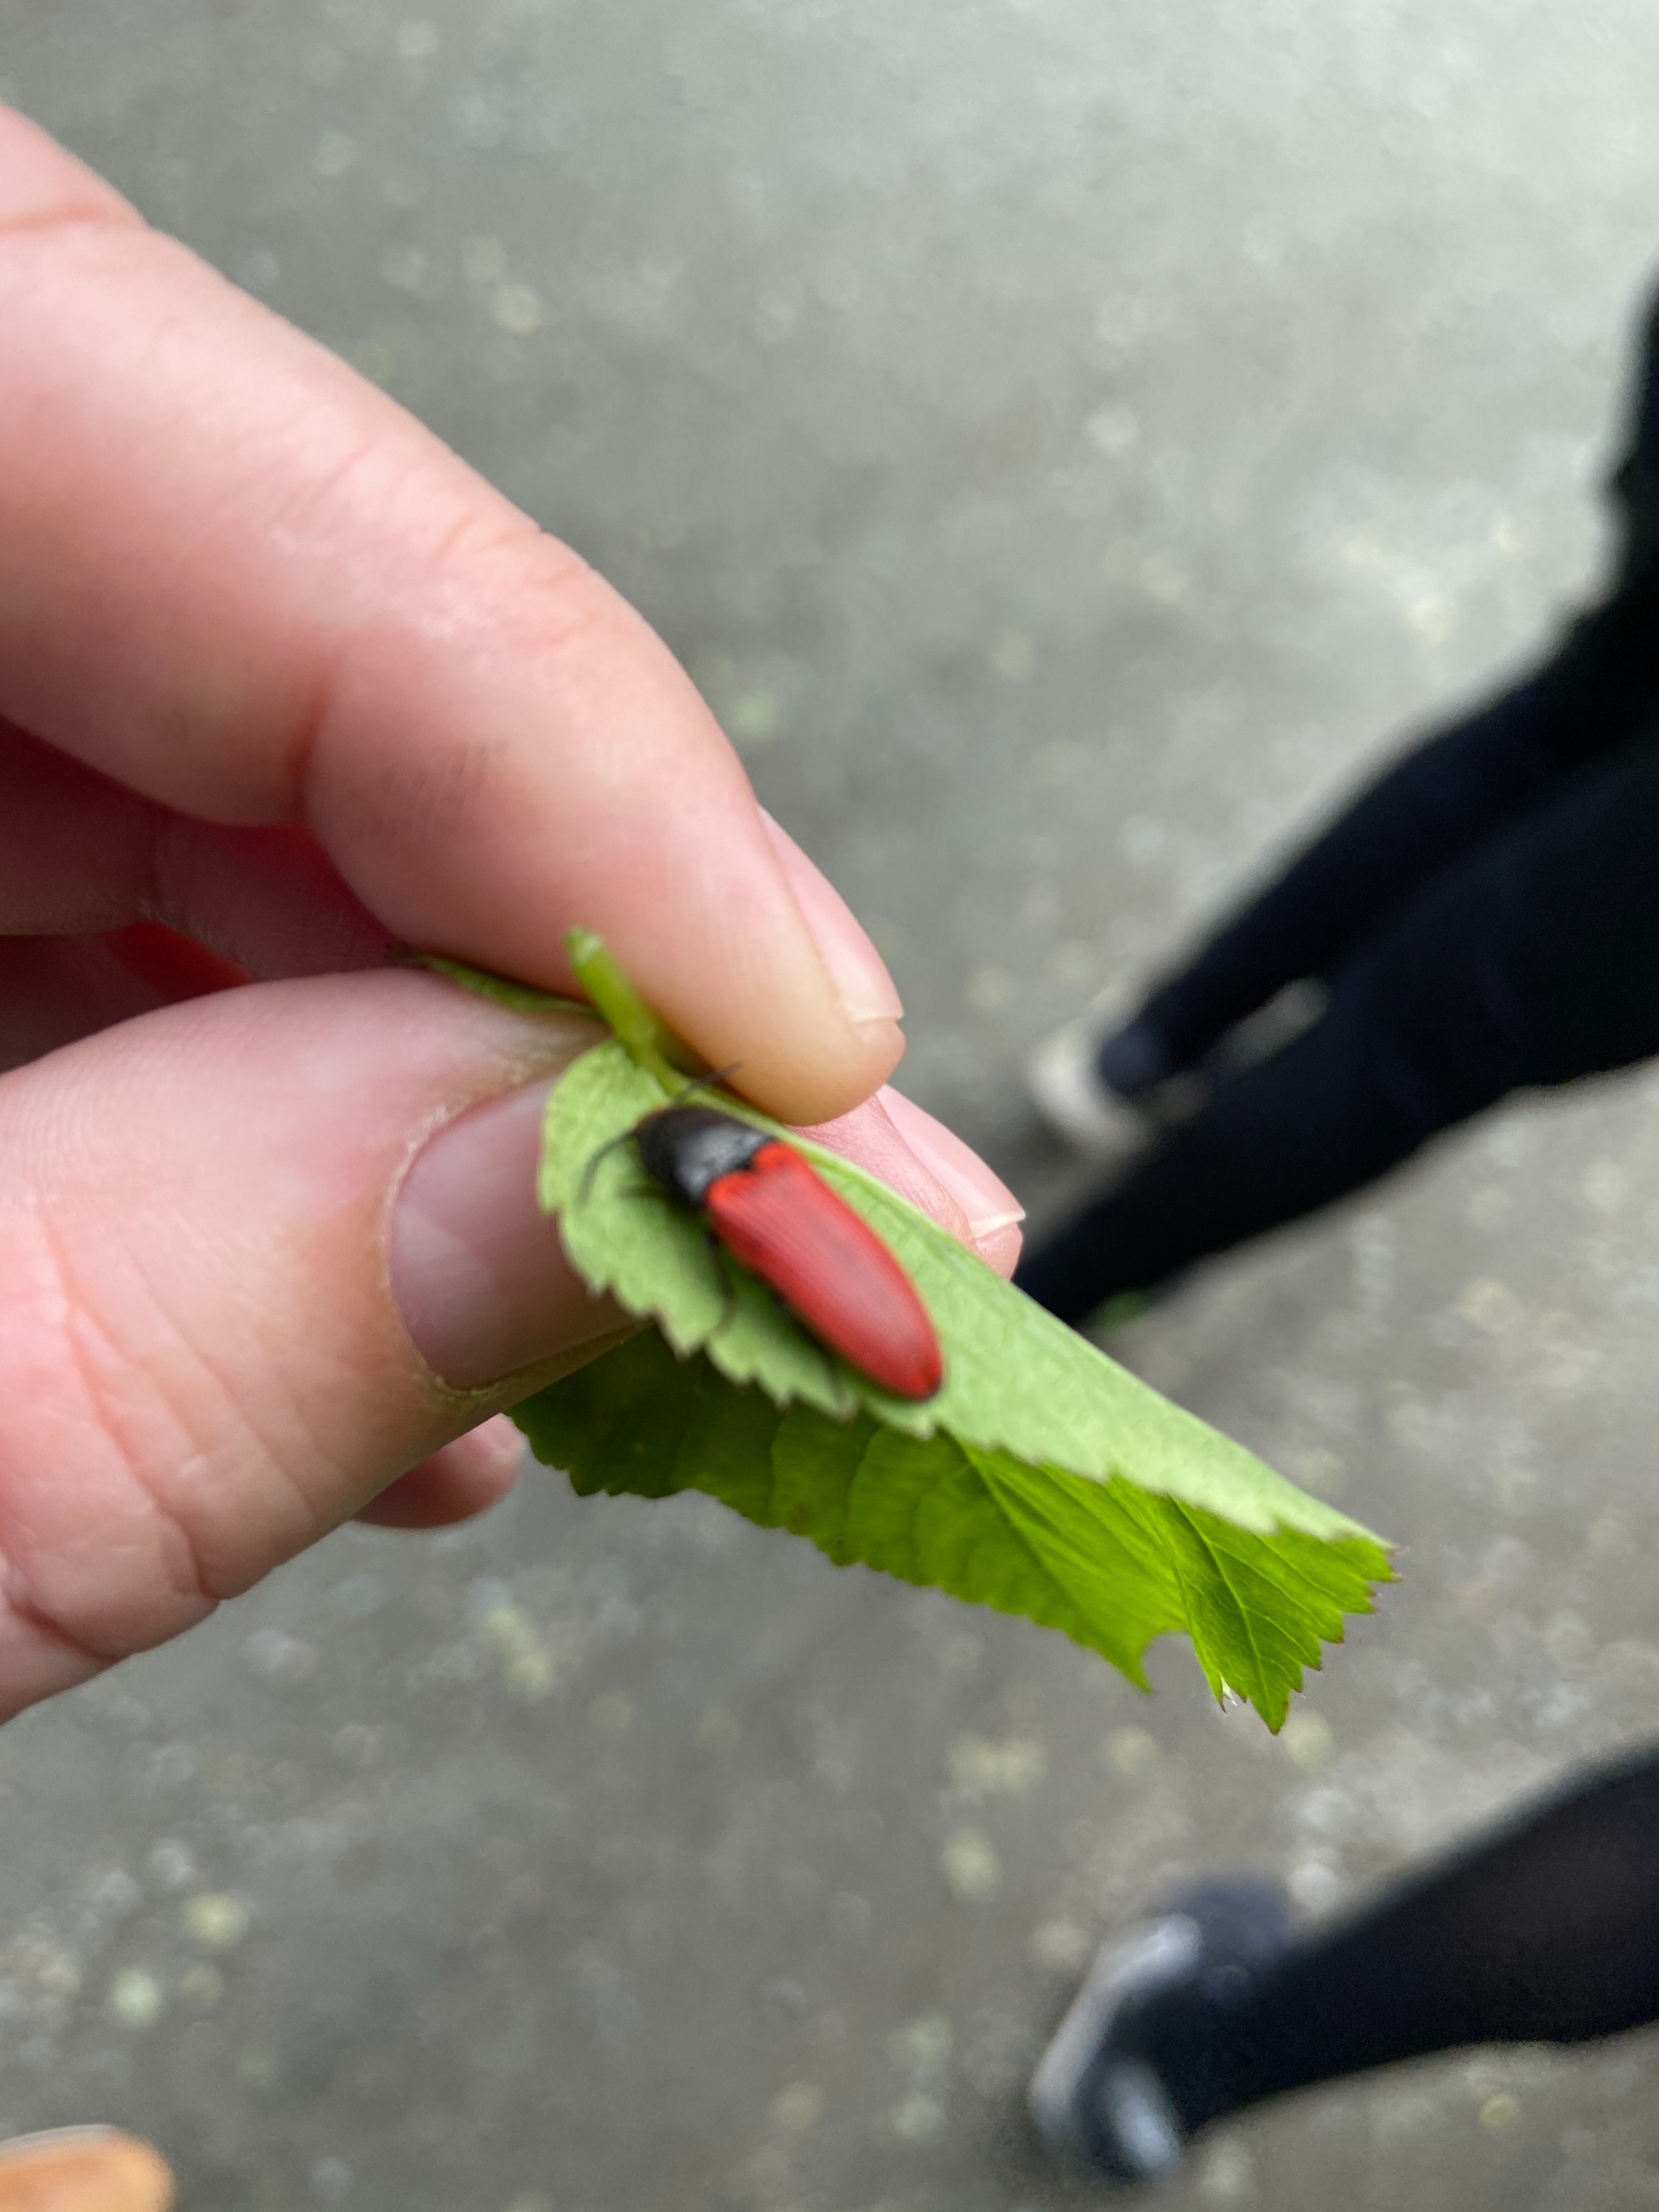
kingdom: Animalia
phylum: Arthropoda
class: Insecta
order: Coleoptera
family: Elateridae
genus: Ampedus
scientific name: Ampedus
